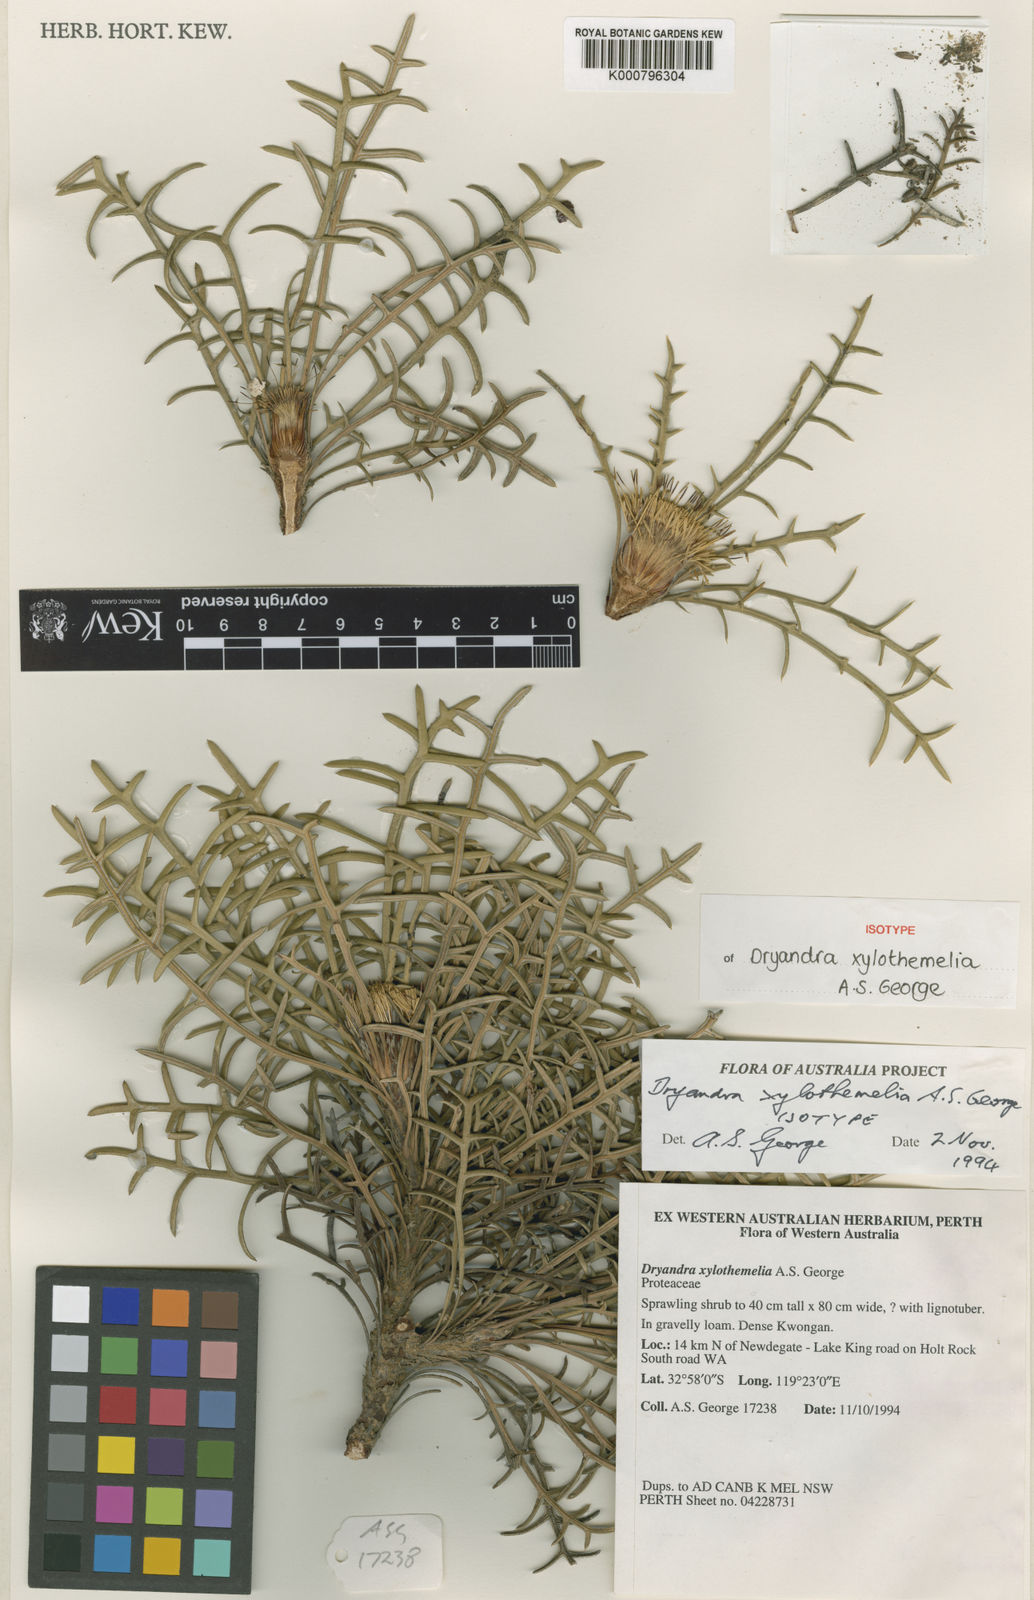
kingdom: Plantae
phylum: Tracheophyta
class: Magnoliopsida
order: Proteales
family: Proteaceae
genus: Banksia
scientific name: Banksia xylothemelia
